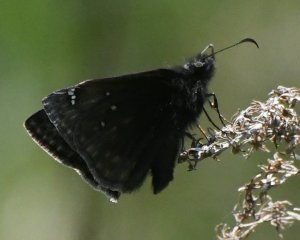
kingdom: Animalia
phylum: Arthropoda
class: Insecta
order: Lepidoptera
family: Hesperiidae
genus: Gesta
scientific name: Gesta
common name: Juvenal's Duskywing
